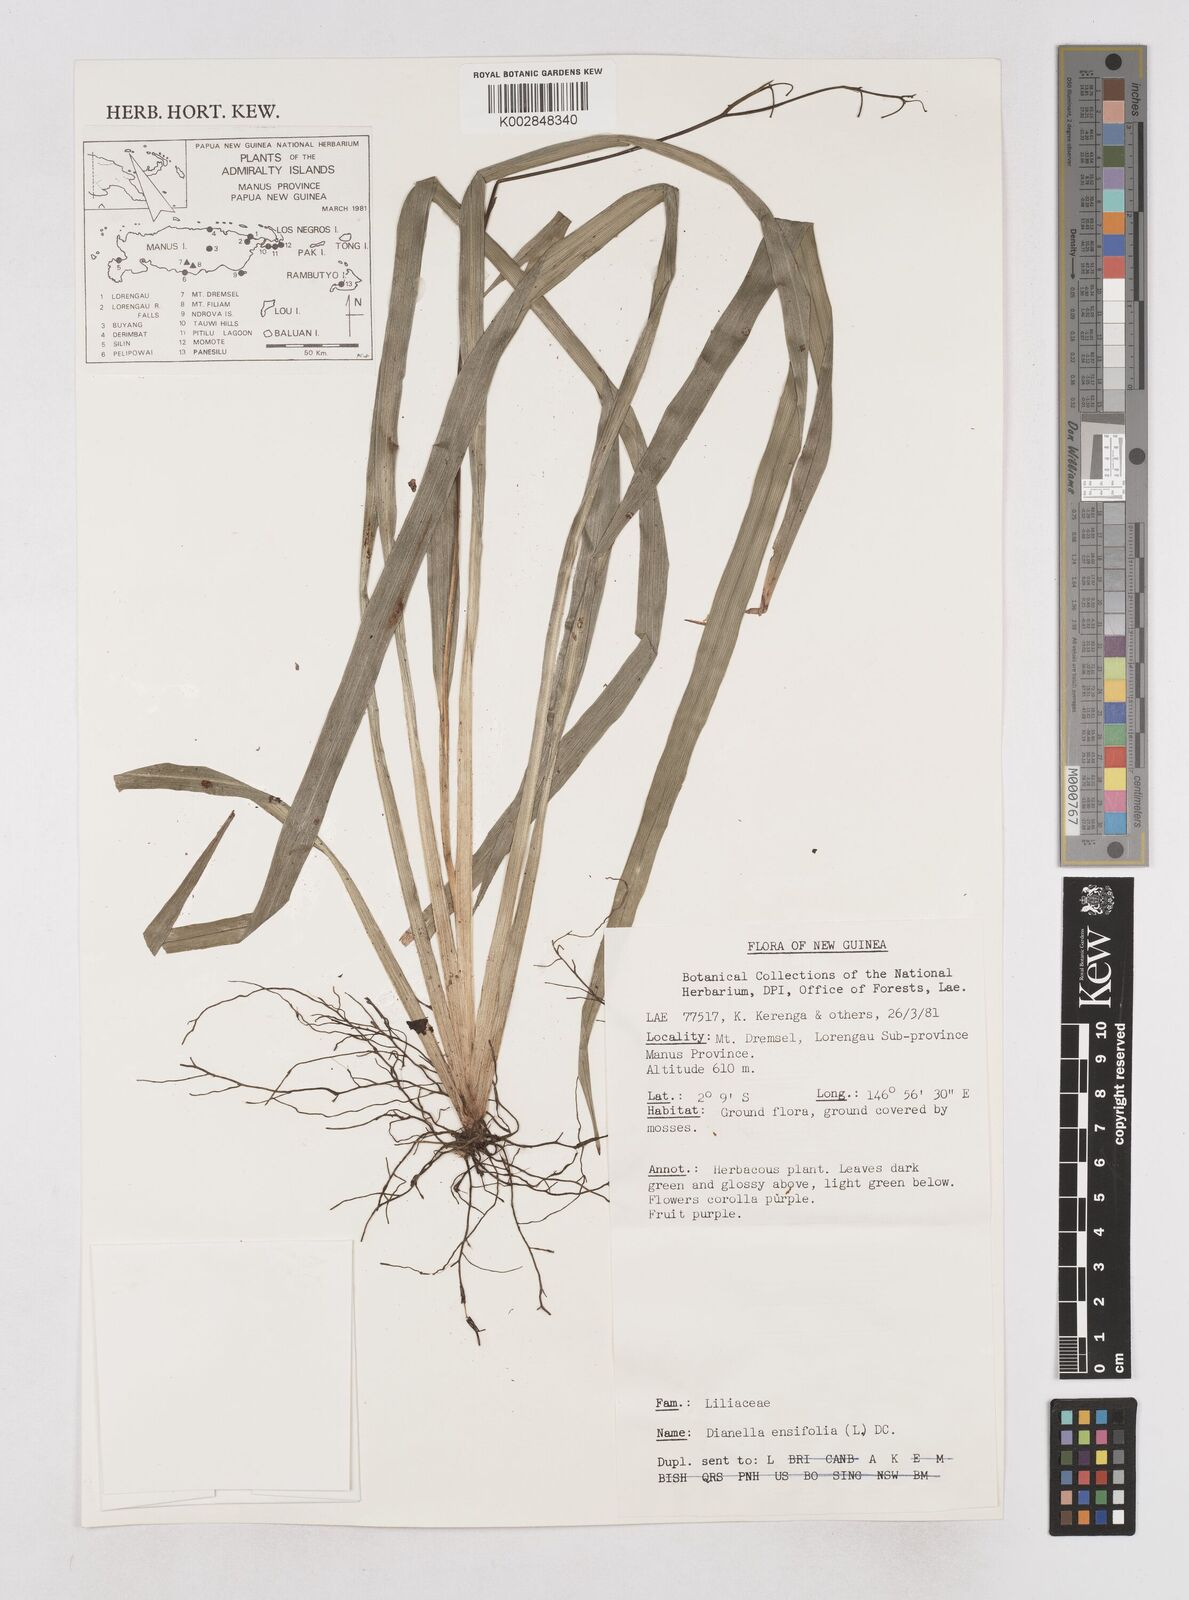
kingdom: Plantae
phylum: Tracheophyta
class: Liliopsida
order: Asparagales
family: Asphodelaceae
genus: Dianella
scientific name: Dianella ensifolia
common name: New zealand lilyplant
